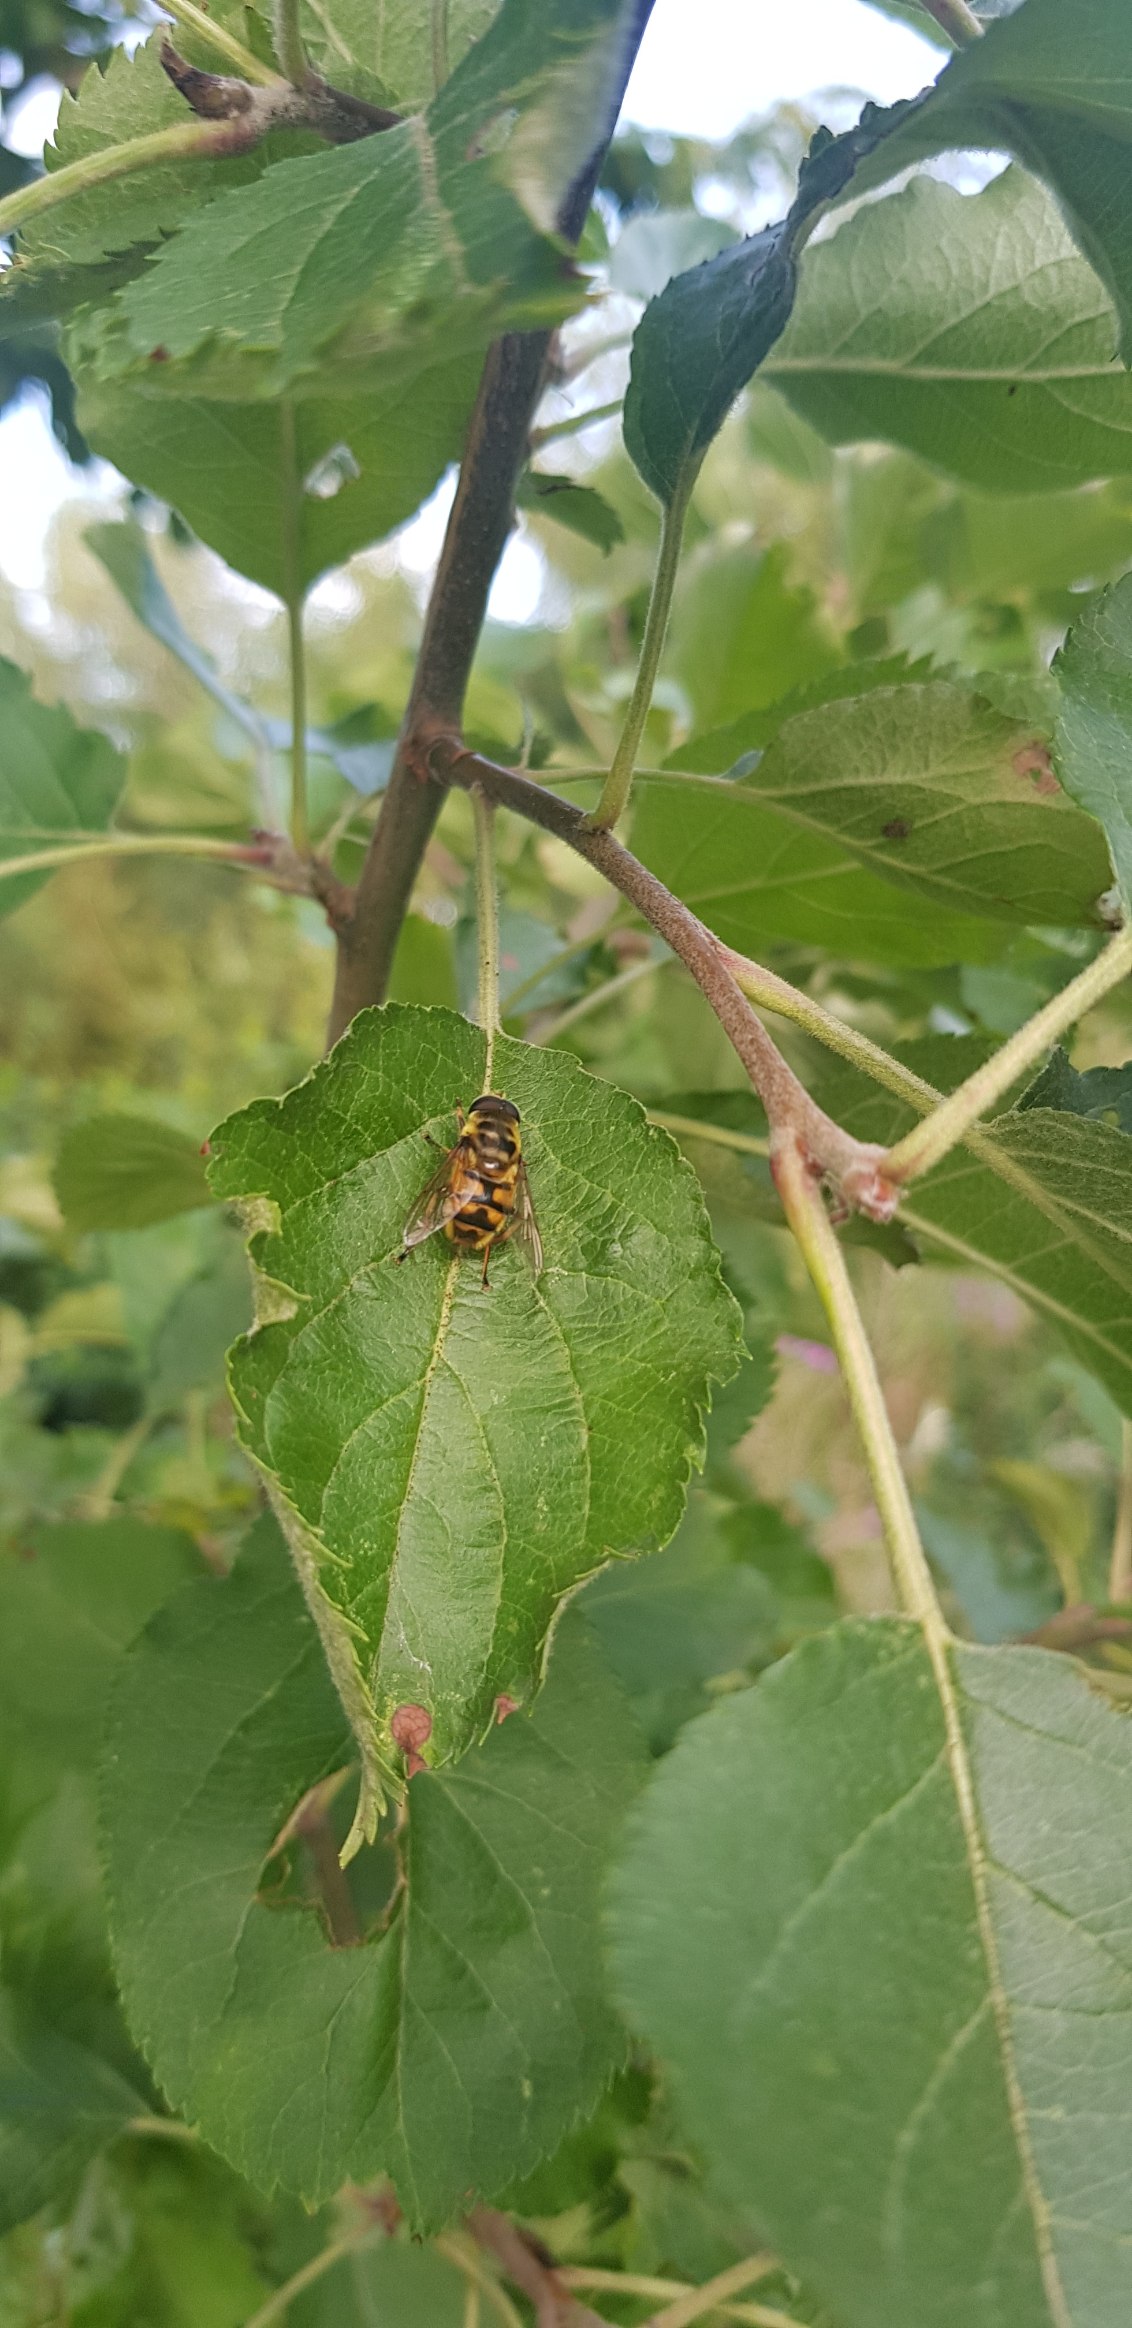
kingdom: Animalia
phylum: Arthropoda
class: Insecta
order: Diptera
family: Syrphidae
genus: Myathropa
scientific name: Myathropa florea
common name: Dødningehoved-svirreflue
